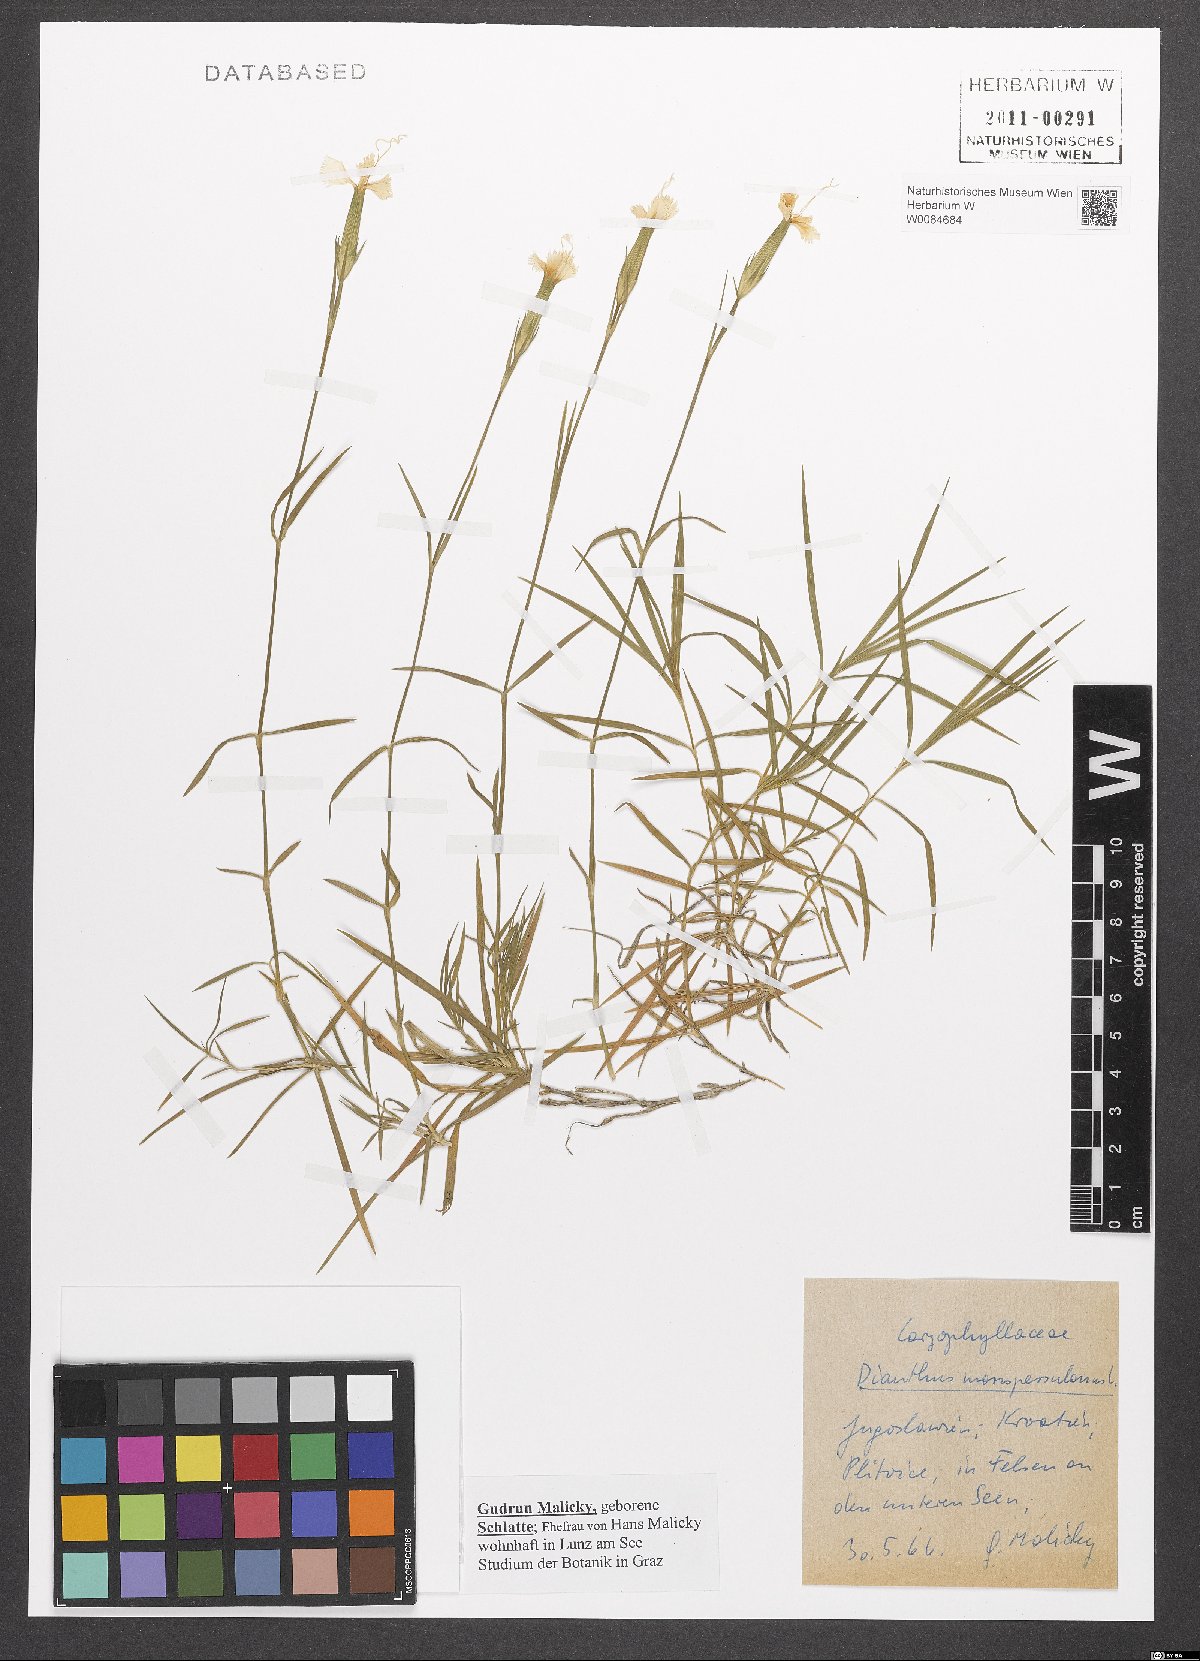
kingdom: Plantae
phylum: Tracheophyta
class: Magnoliopsida
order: Caryophyllales
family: Caryophyllaceae
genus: Dianthus
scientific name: Dianthus hyssopifolius
